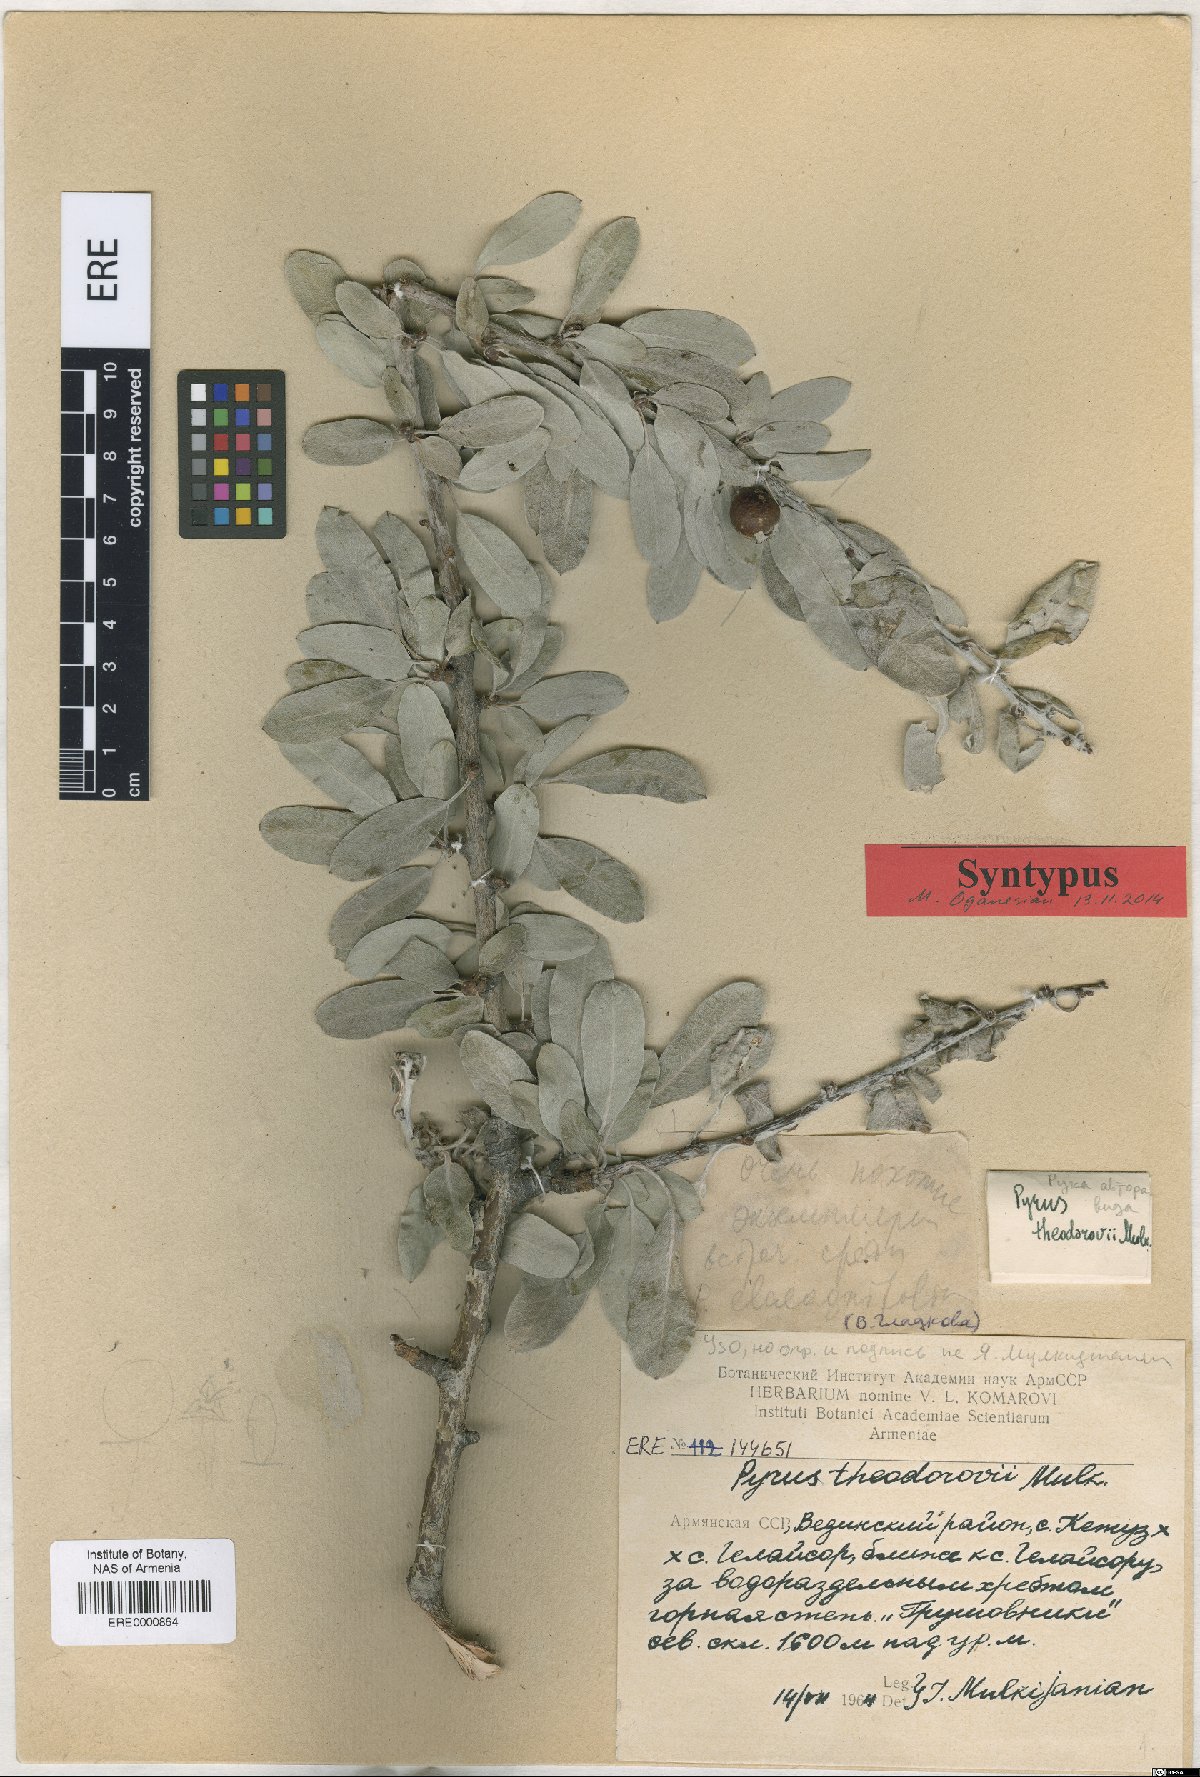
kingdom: Plantae
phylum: Tracheophyta
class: Magnoliopsida
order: Rosales
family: Rosaceae
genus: Pyrus
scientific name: Pyrus theodorovii
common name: Teodorov's pear
